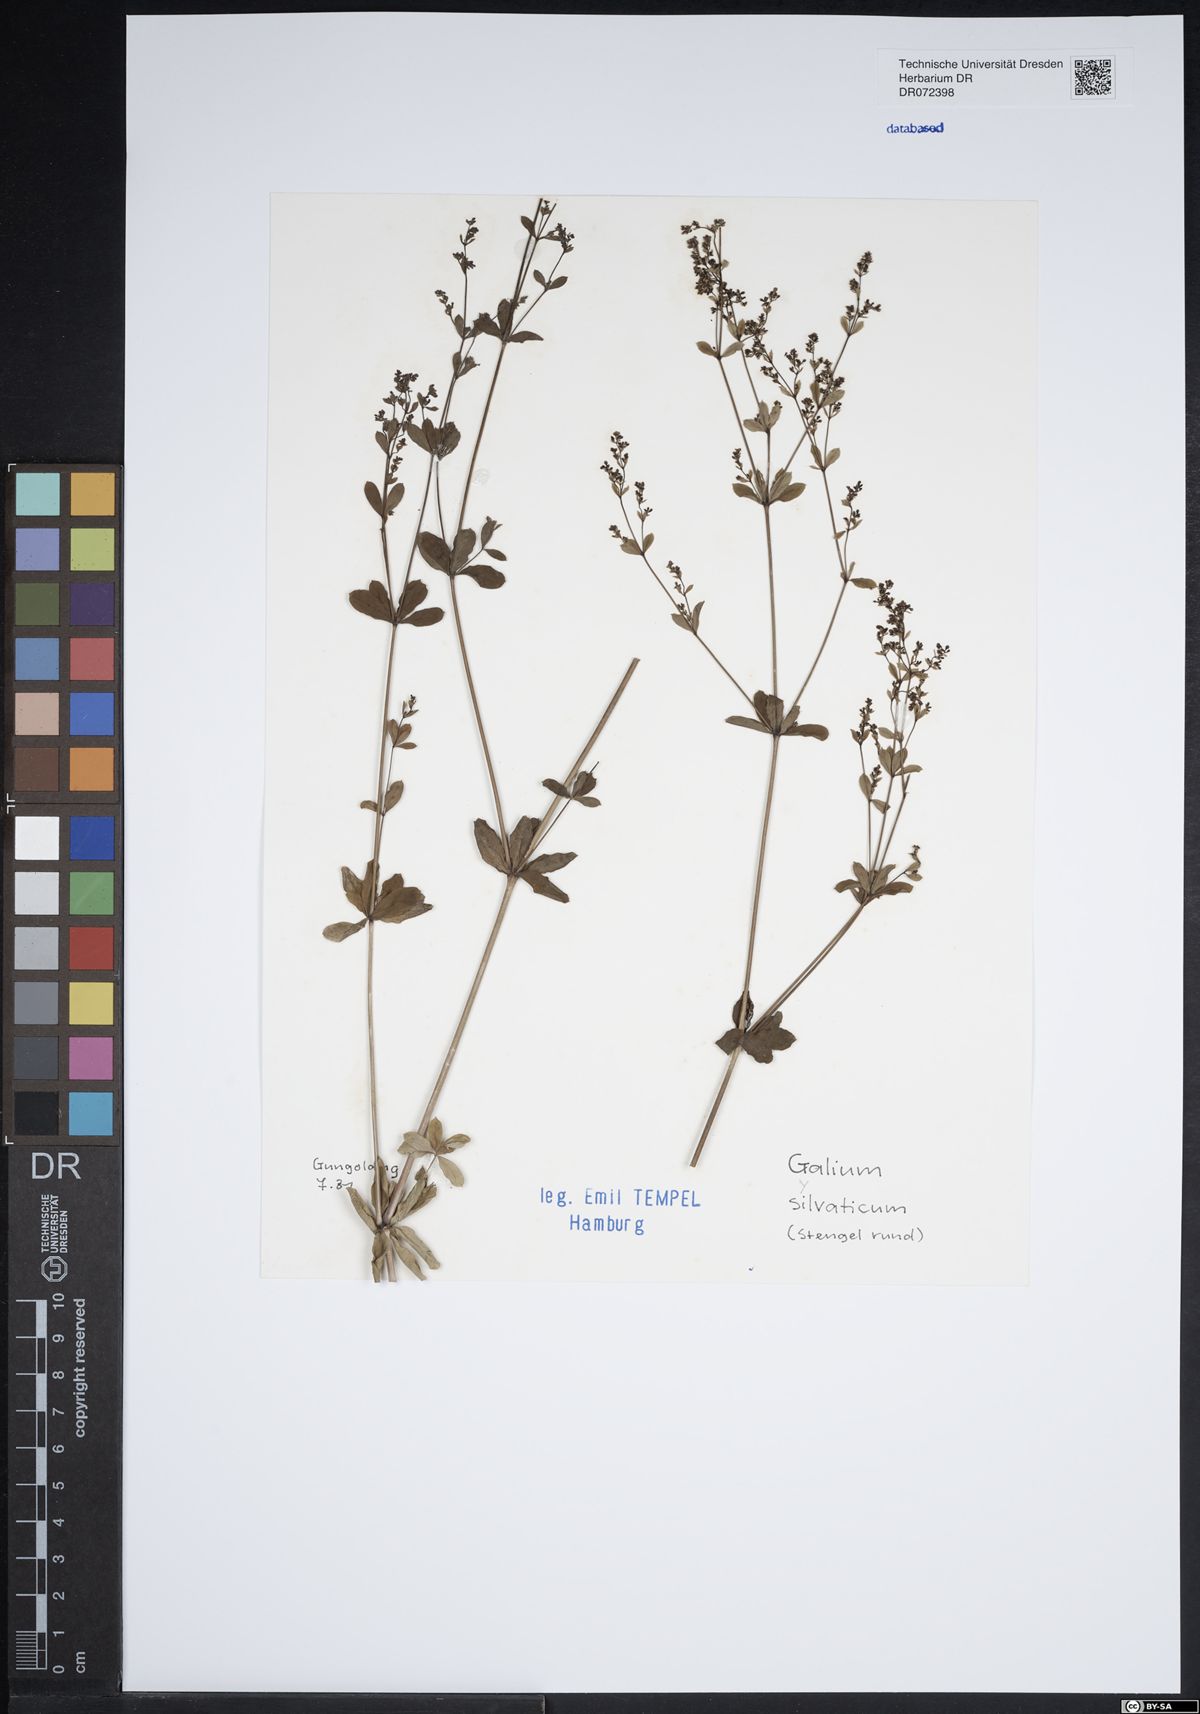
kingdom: Plantae
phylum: Tracheophyta
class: Magnoliopsida
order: Gentianales
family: Rubiaceae
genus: Galium
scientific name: Galium sylvaticum
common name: Wood bedstraw
